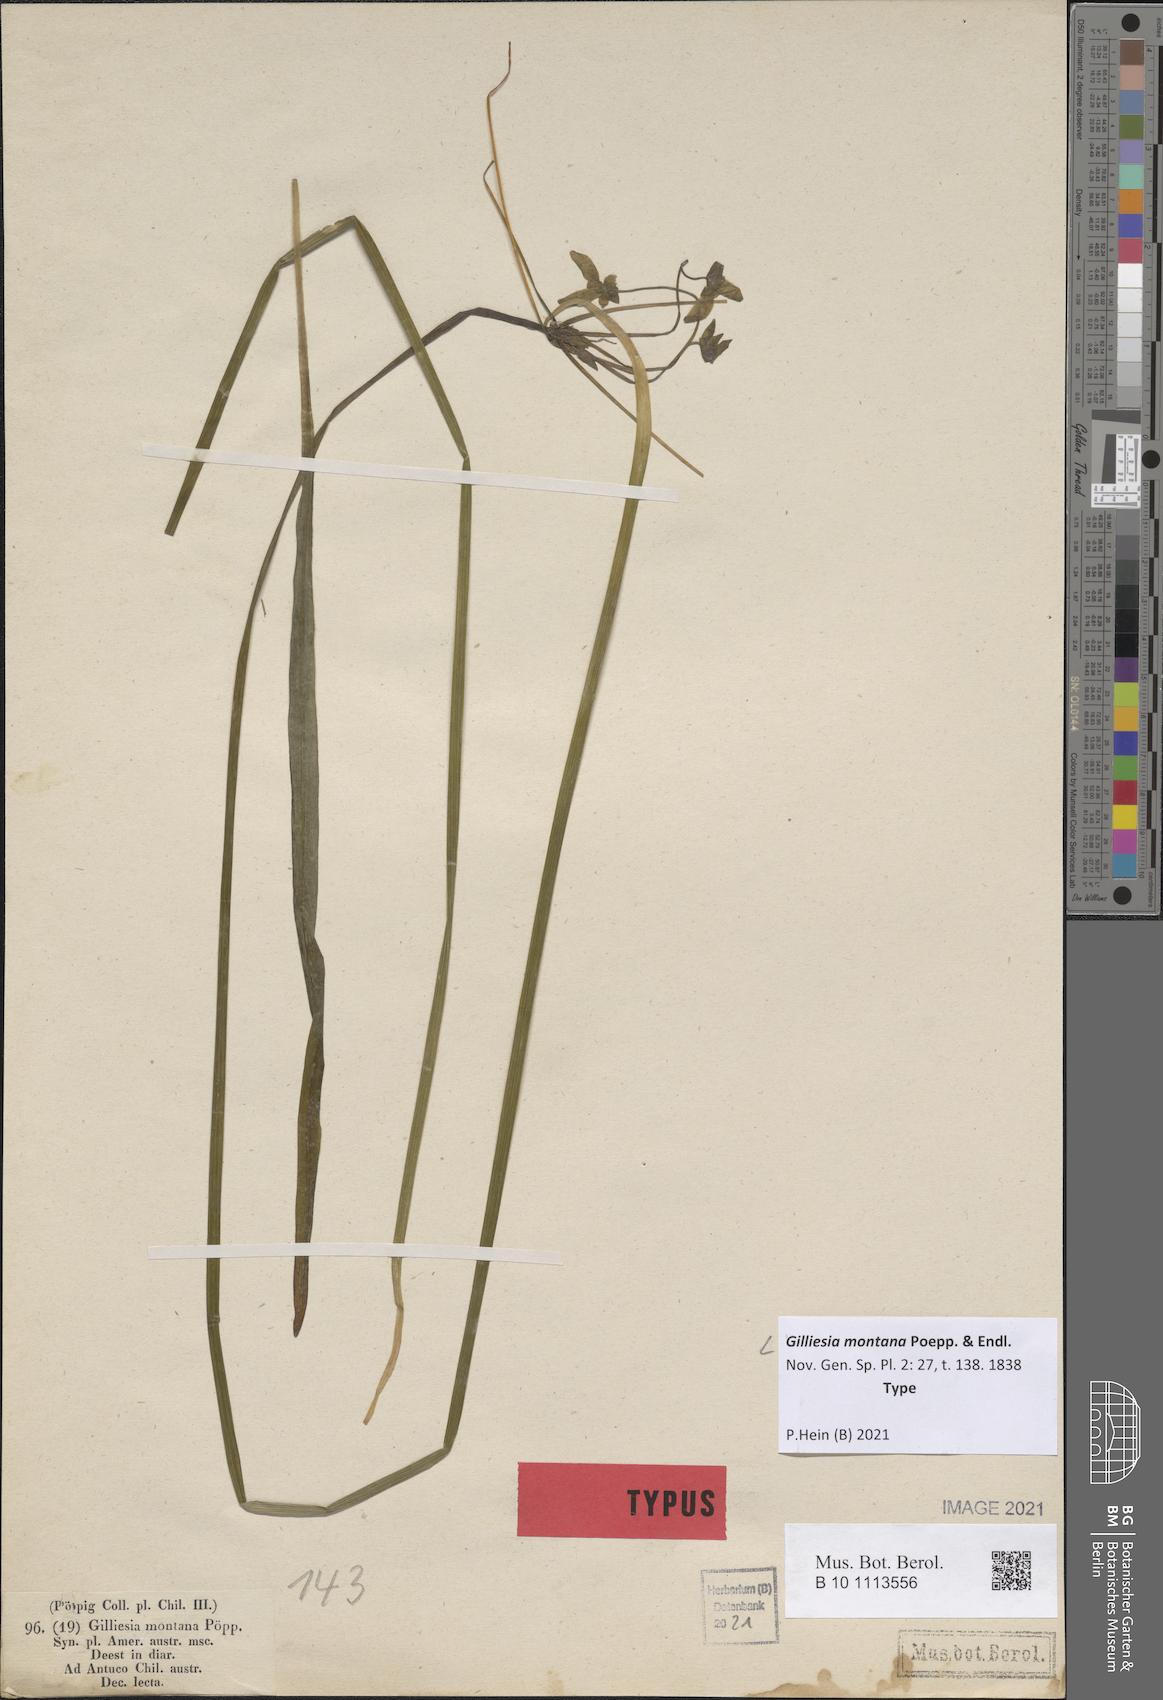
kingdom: Plantae
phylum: Tracheophyta
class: Liliopsida
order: Asparagales
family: Amaryllidaceae
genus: Gilliesia
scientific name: Gilliesia montana
